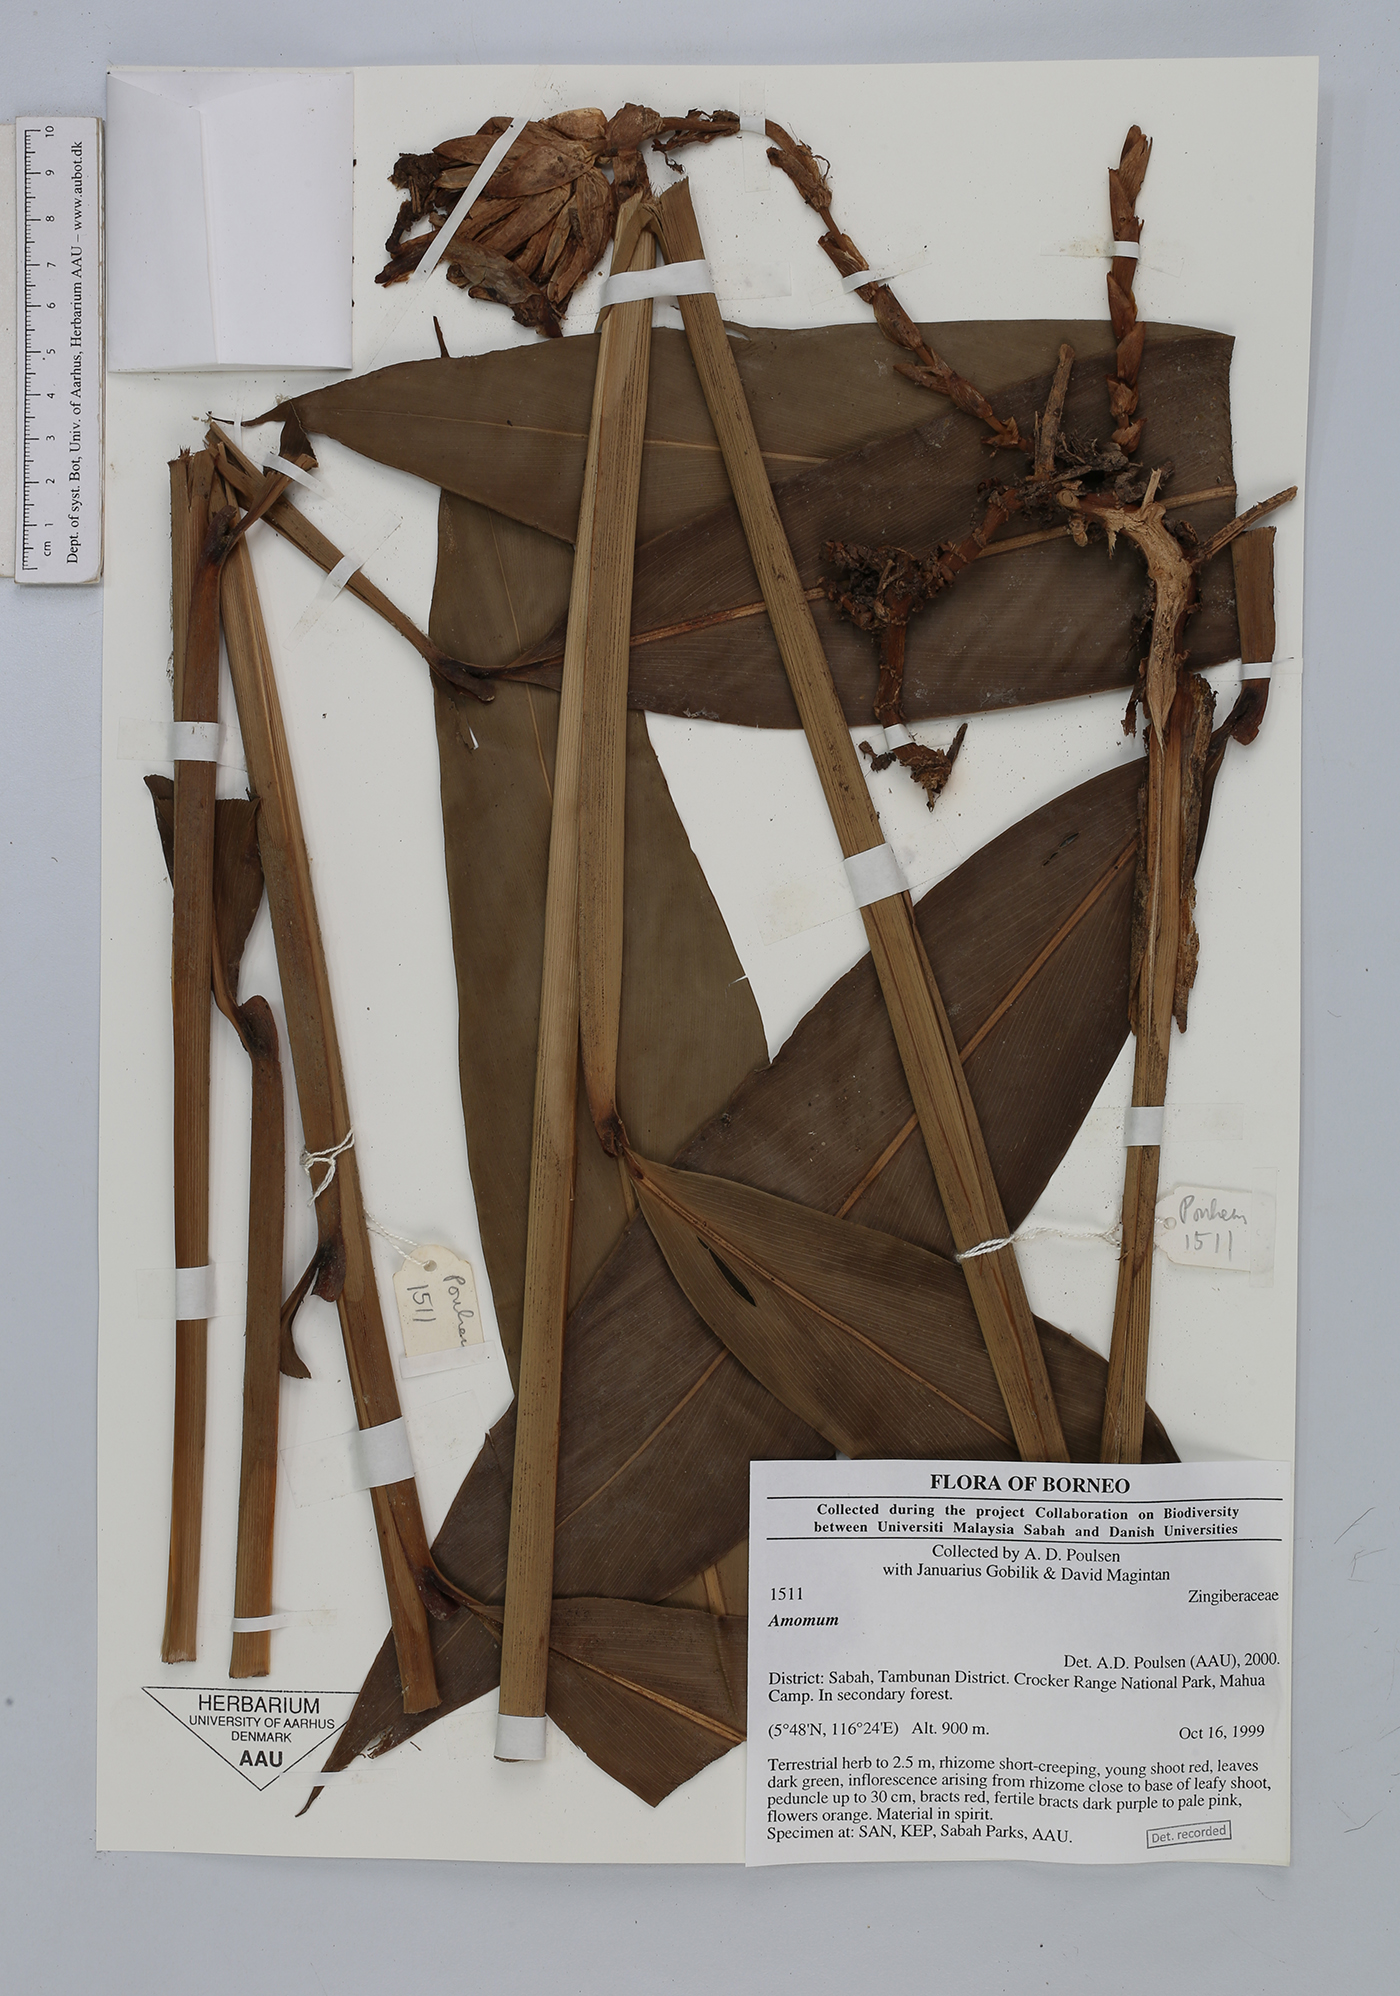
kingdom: Plantae
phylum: Tracheophyta
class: Liliopsida
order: Zingiberales
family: Zingiberaceae
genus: Amomum
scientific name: Amomum
